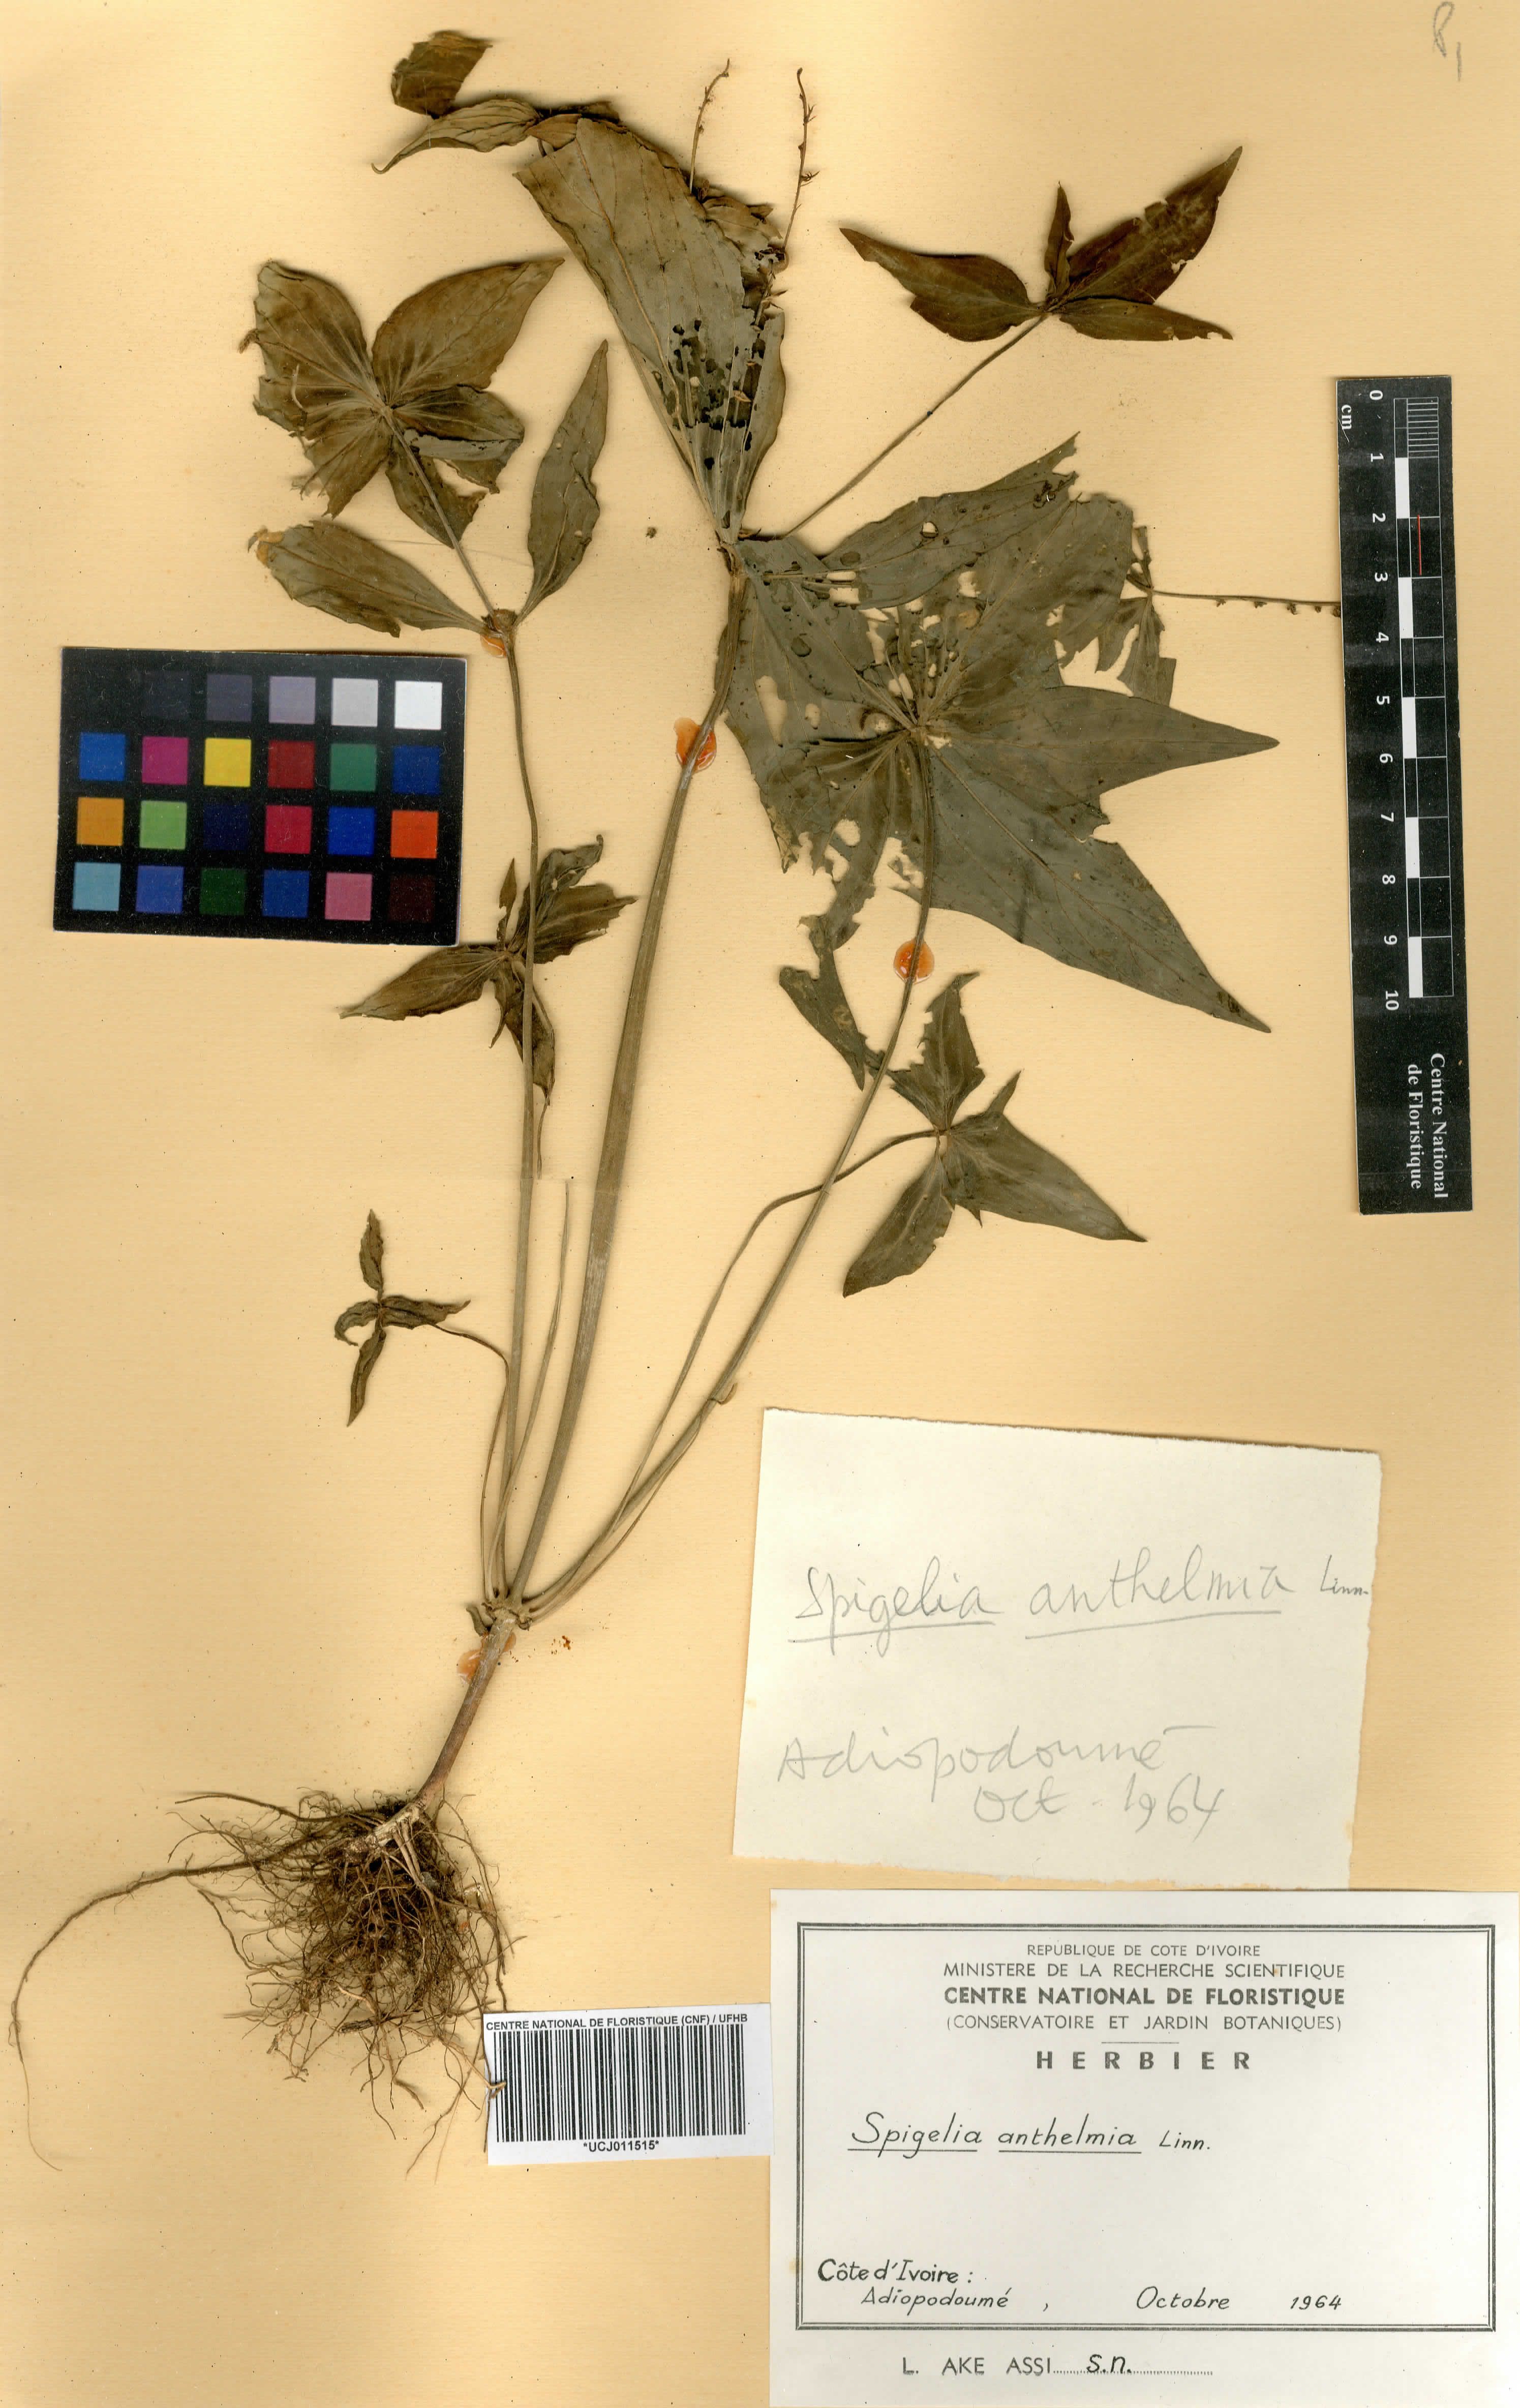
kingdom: Plantae
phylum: Tracheophyta
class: Magnoliopsida
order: Gentianales
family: Loganiaceae
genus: Usteria
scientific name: Usteria guineensis
